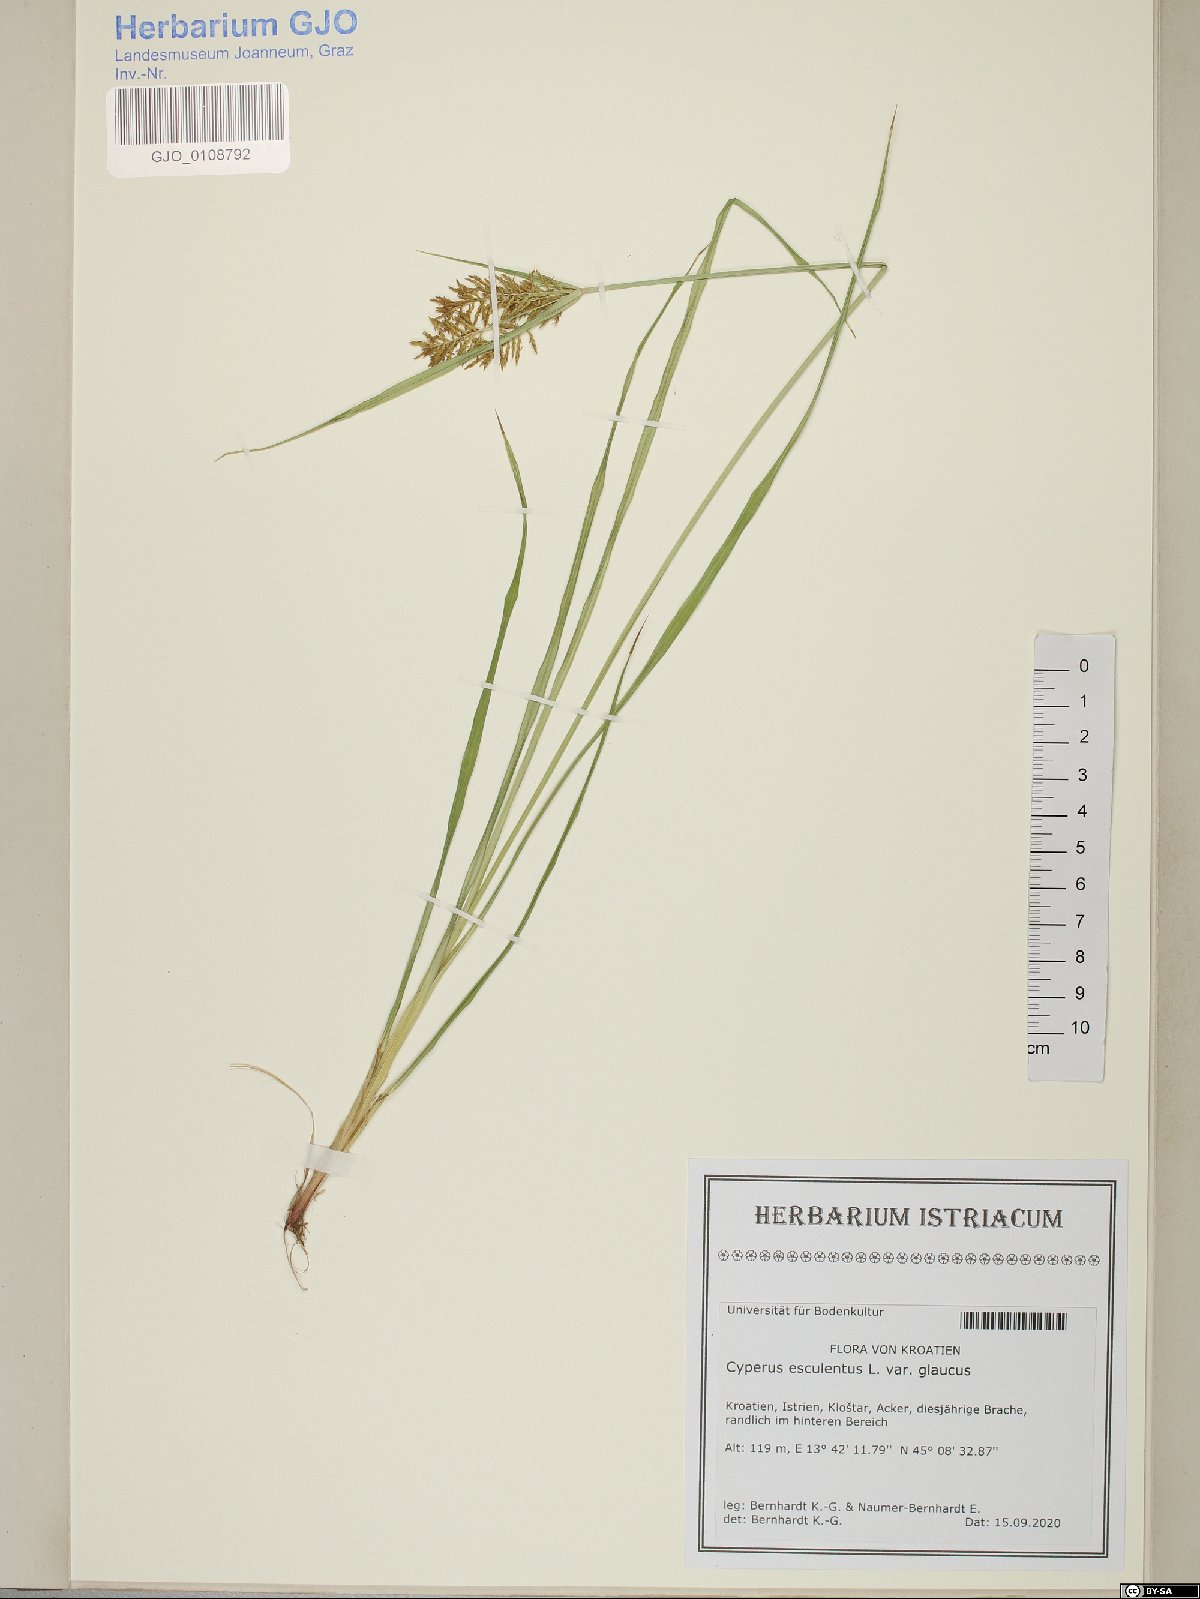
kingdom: Plantae
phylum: Tracheophyta
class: Liliopsida
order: Poales
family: Cyperaceae
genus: Cyperus
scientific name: Cyperus esculentus
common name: Yellow nutsedge
